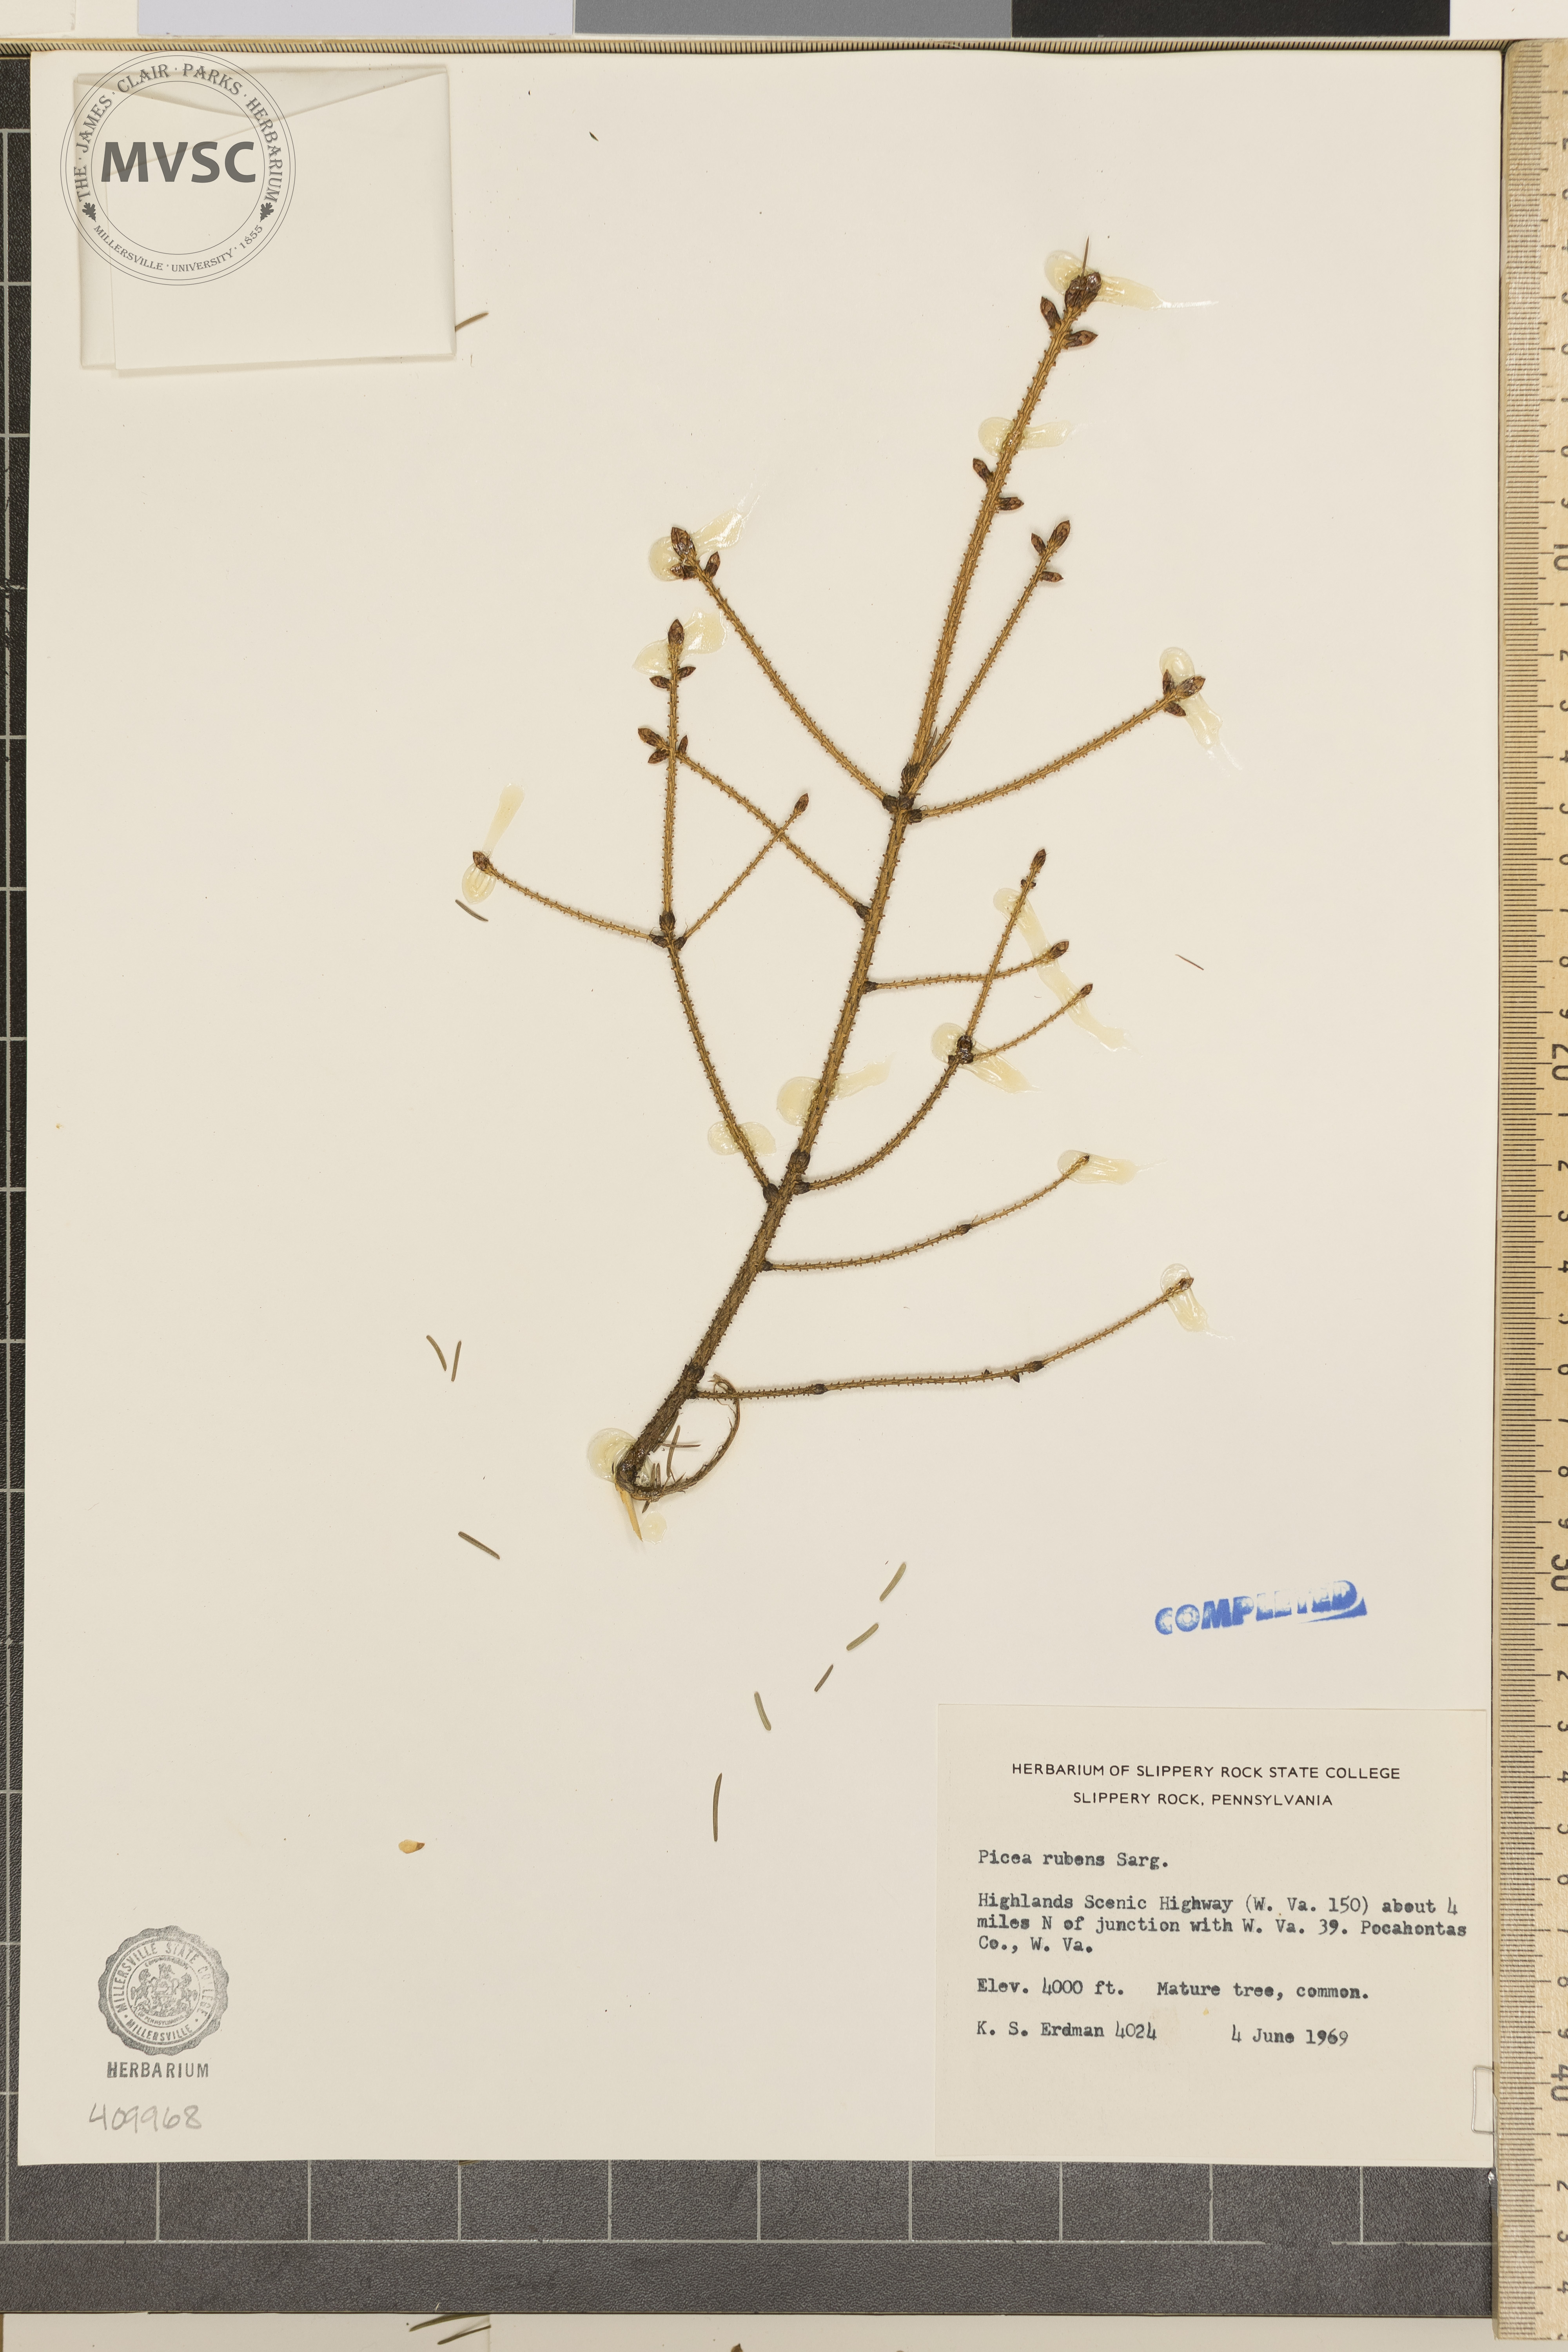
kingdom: Plantae
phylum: Tracheophyta
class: Pinopsida
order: Pinales
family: Pinaceae
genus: Picea
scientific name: Picea rubens
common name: Red spruce
